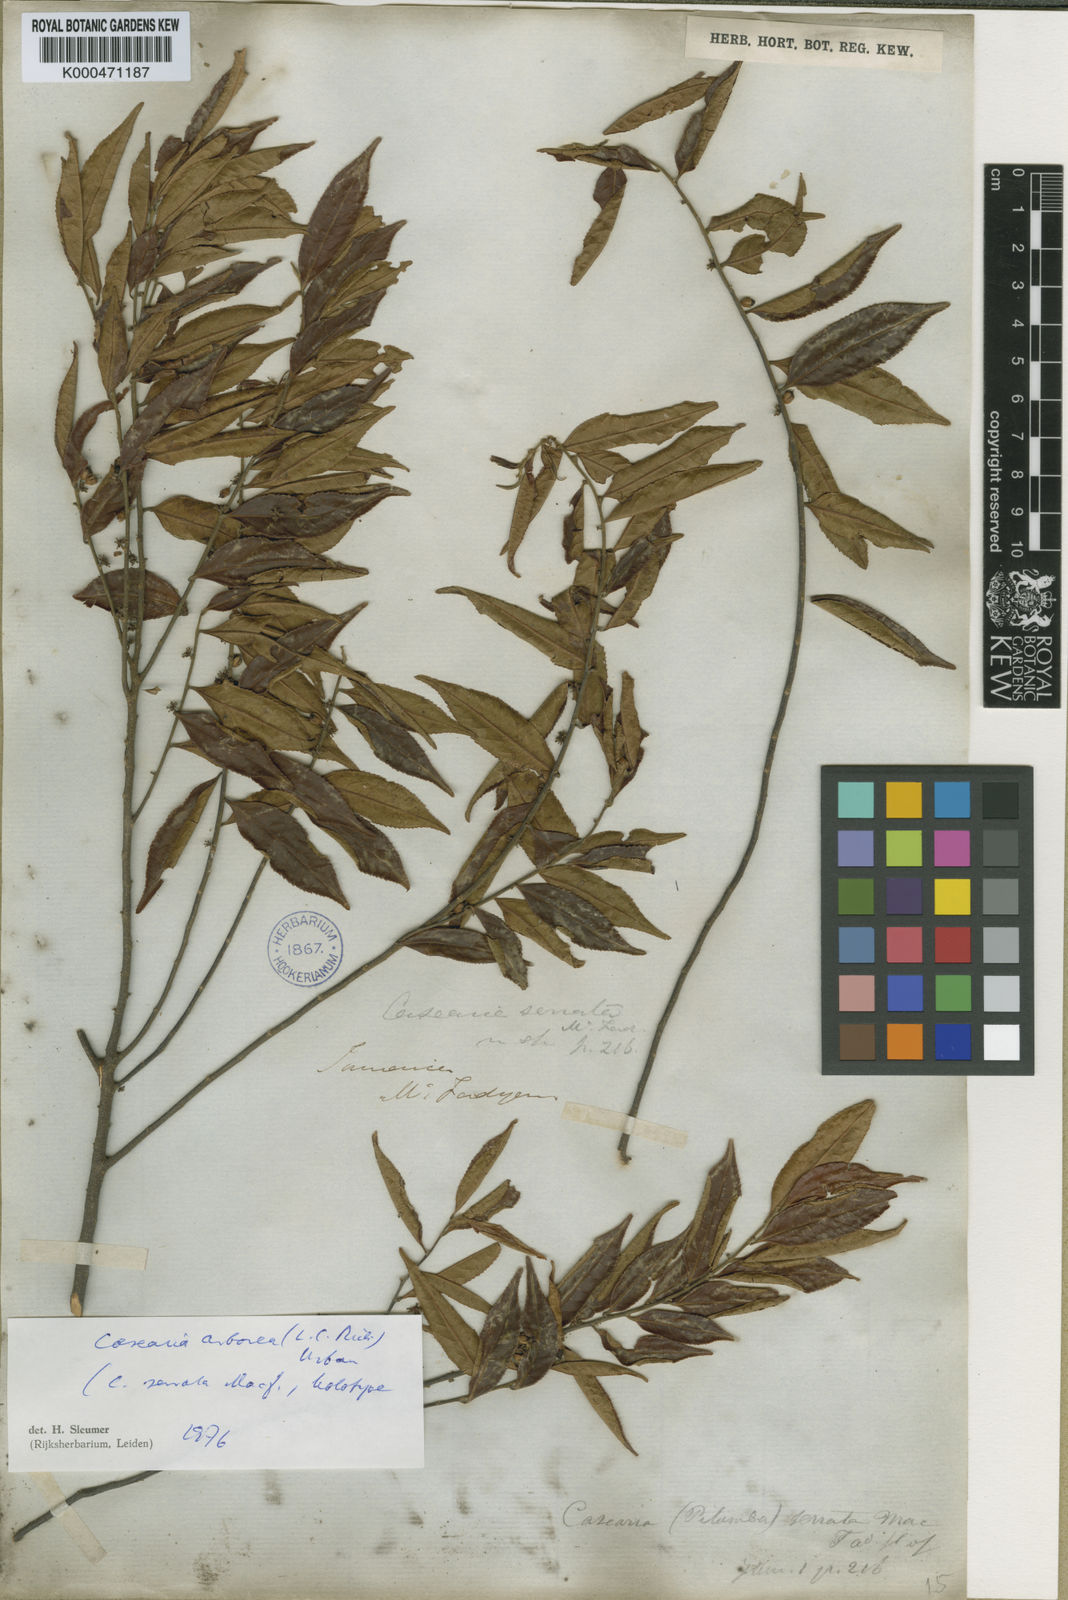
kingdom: Plantae
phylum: Tracheophyta
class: Magnoliopsida
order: Malpighiales
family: Salicaceae
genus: Casearia
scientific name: Casearia arborea
